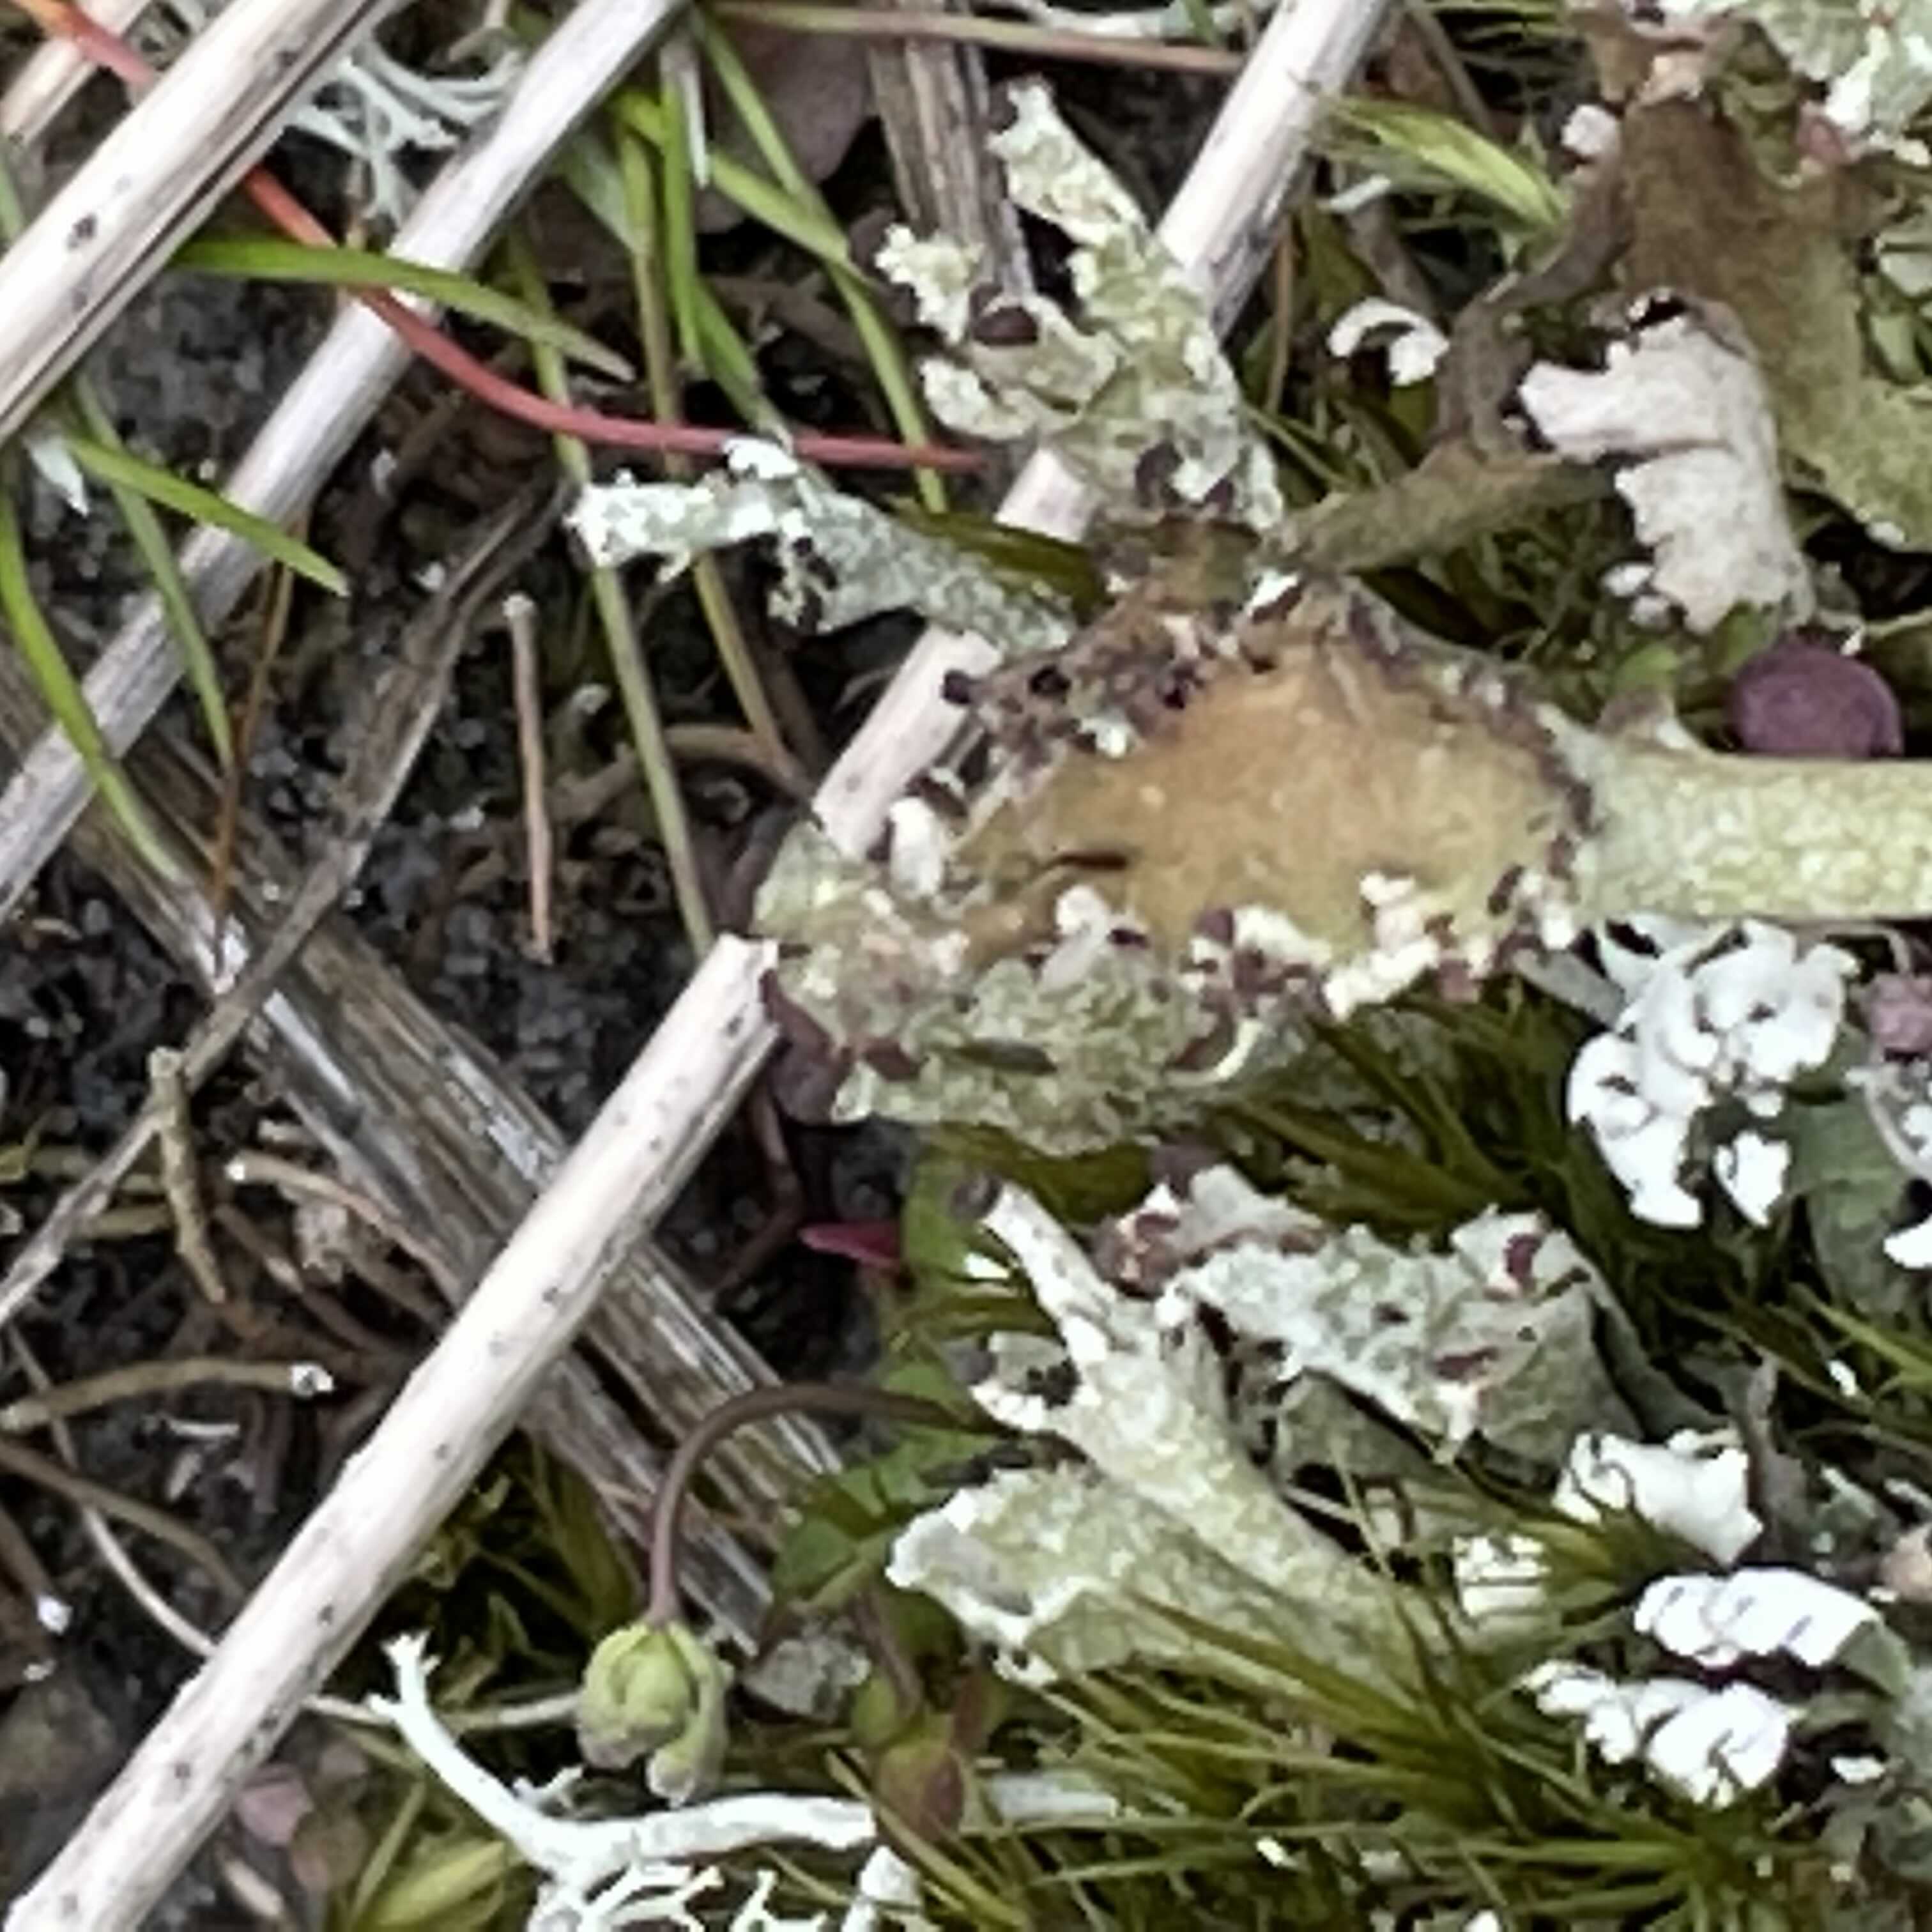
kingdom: Fungi
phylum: Ascomycota
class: Lecanoromycetes
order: Lecanorales
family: Cladoniaceae
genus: Cladonia
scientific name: Cladonia cervicornis
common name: gevir-bægerlav
